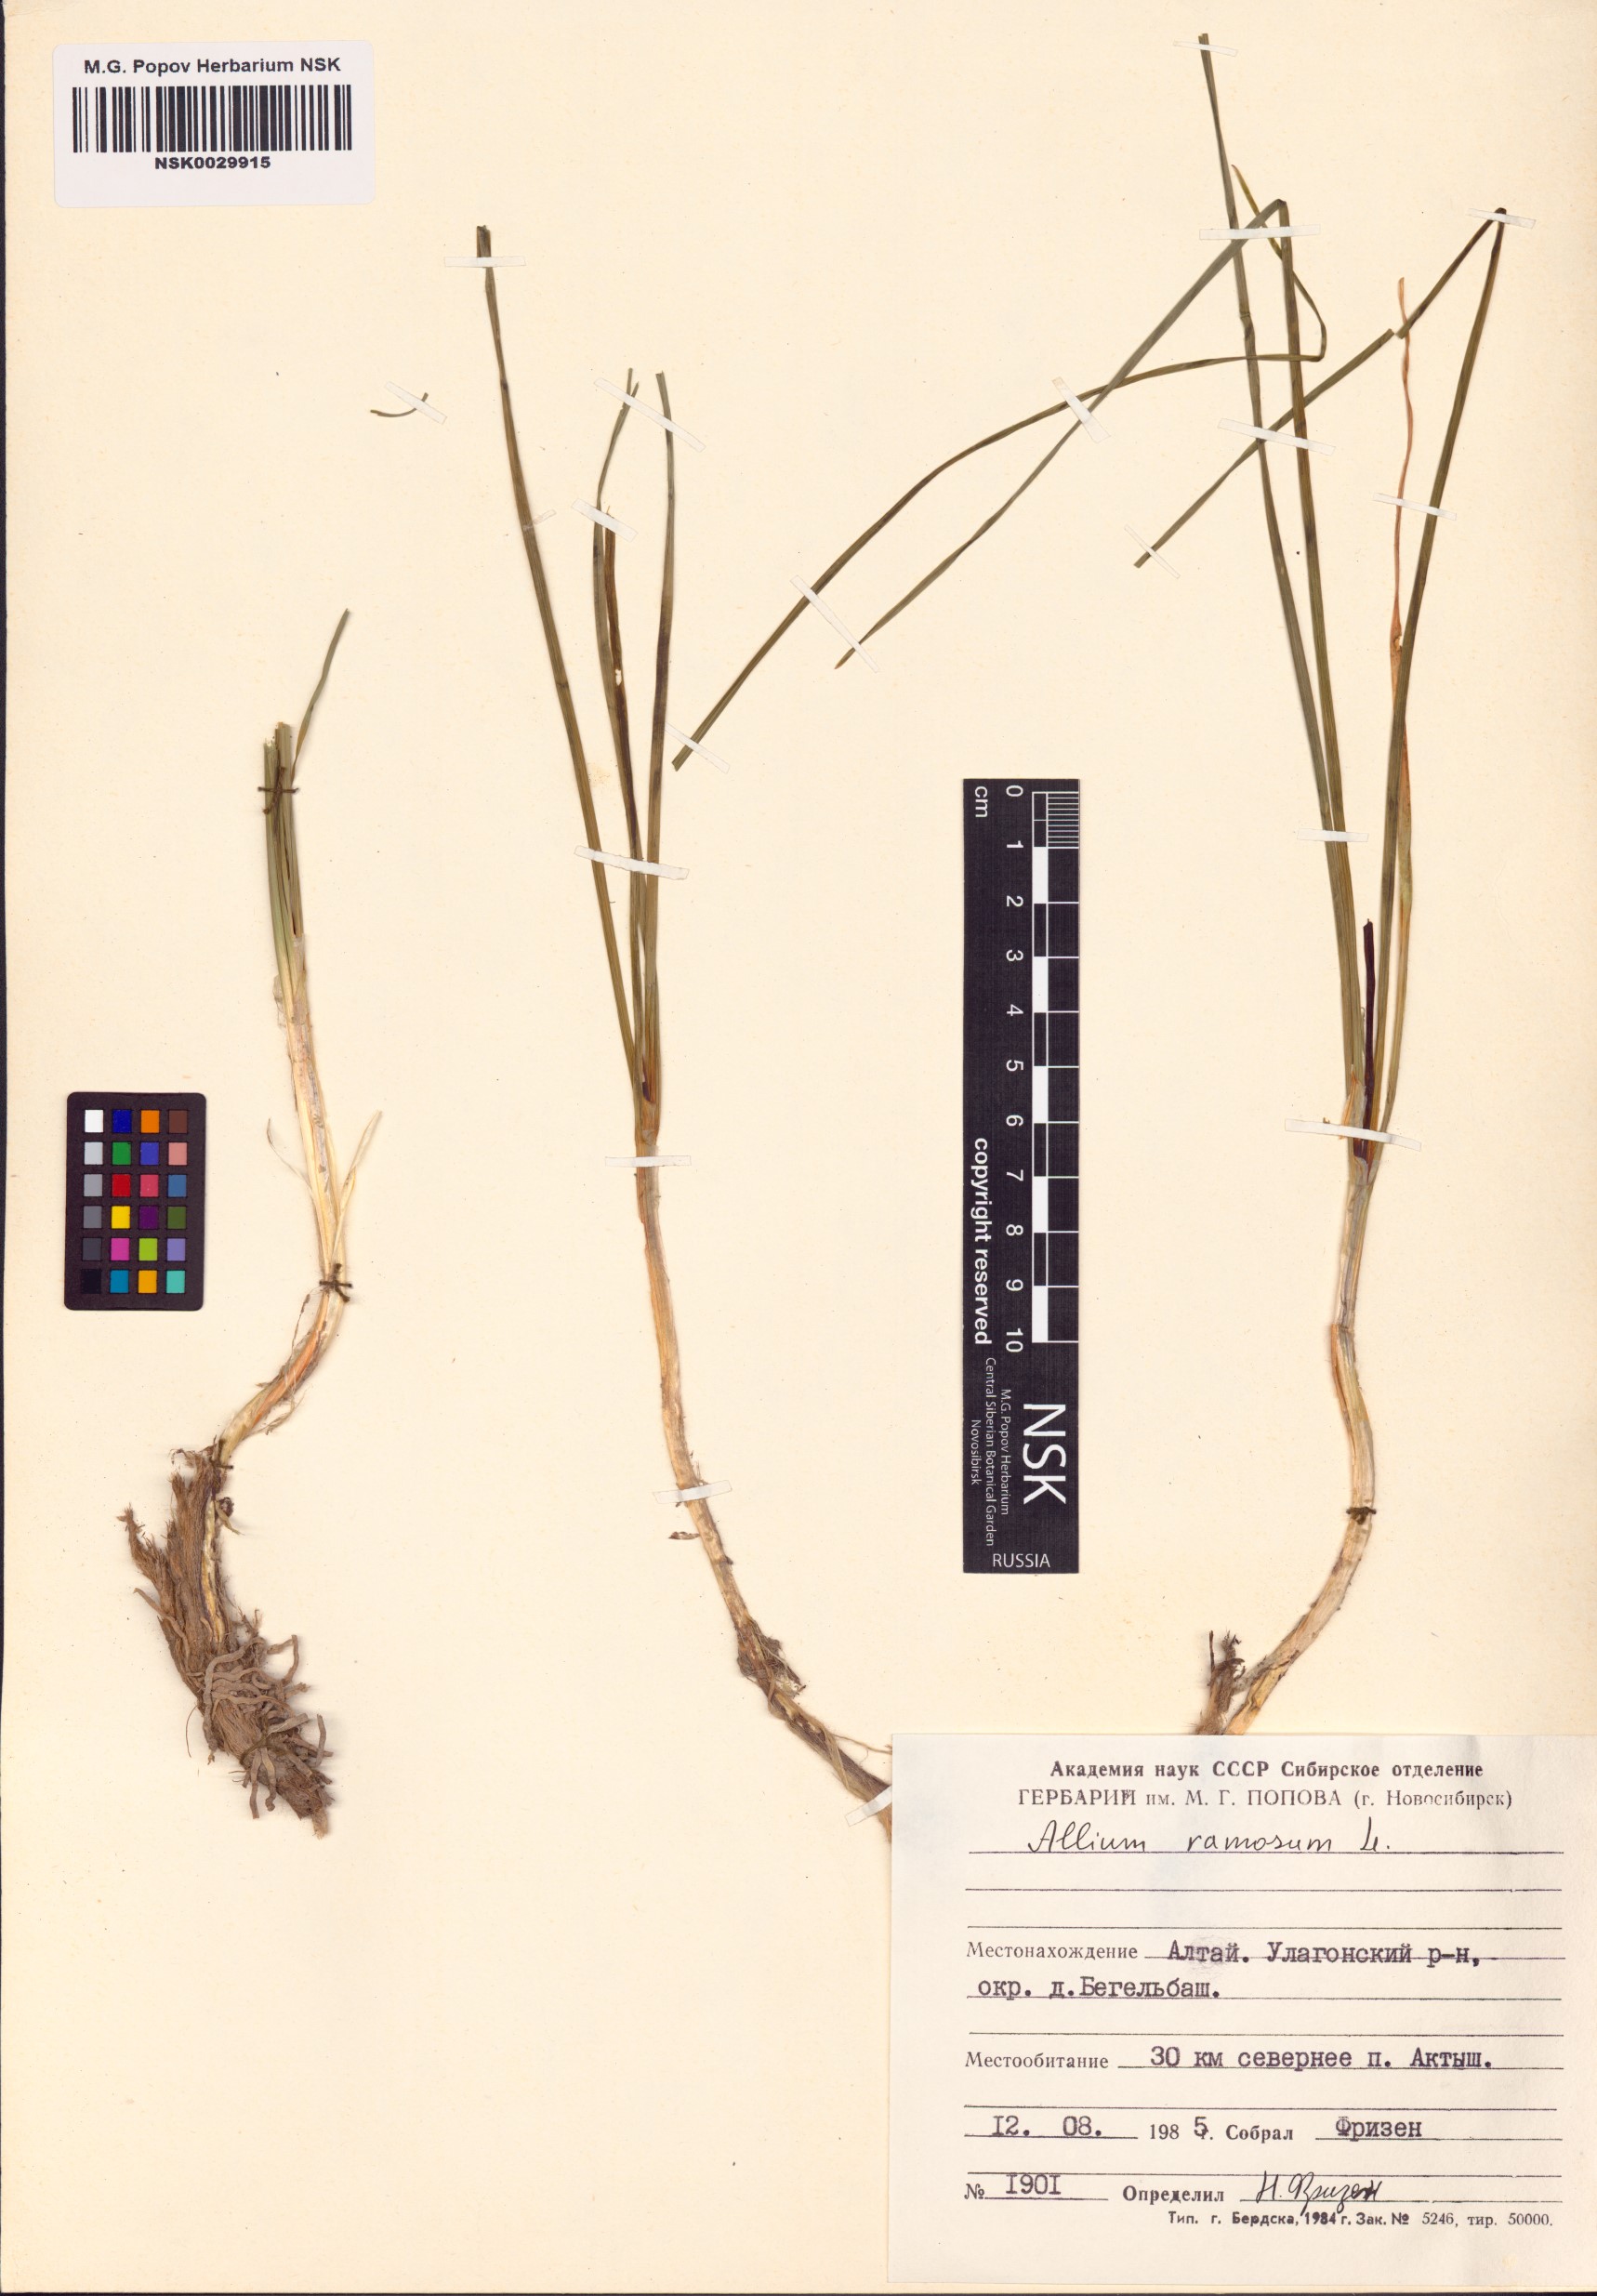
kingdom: Plantae
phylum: Tracheophyta
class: Liliopsida
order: Asparagales
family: Amaryllidaceae
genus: Allium
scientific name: Allium ramosum
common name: Fragrant garlic
